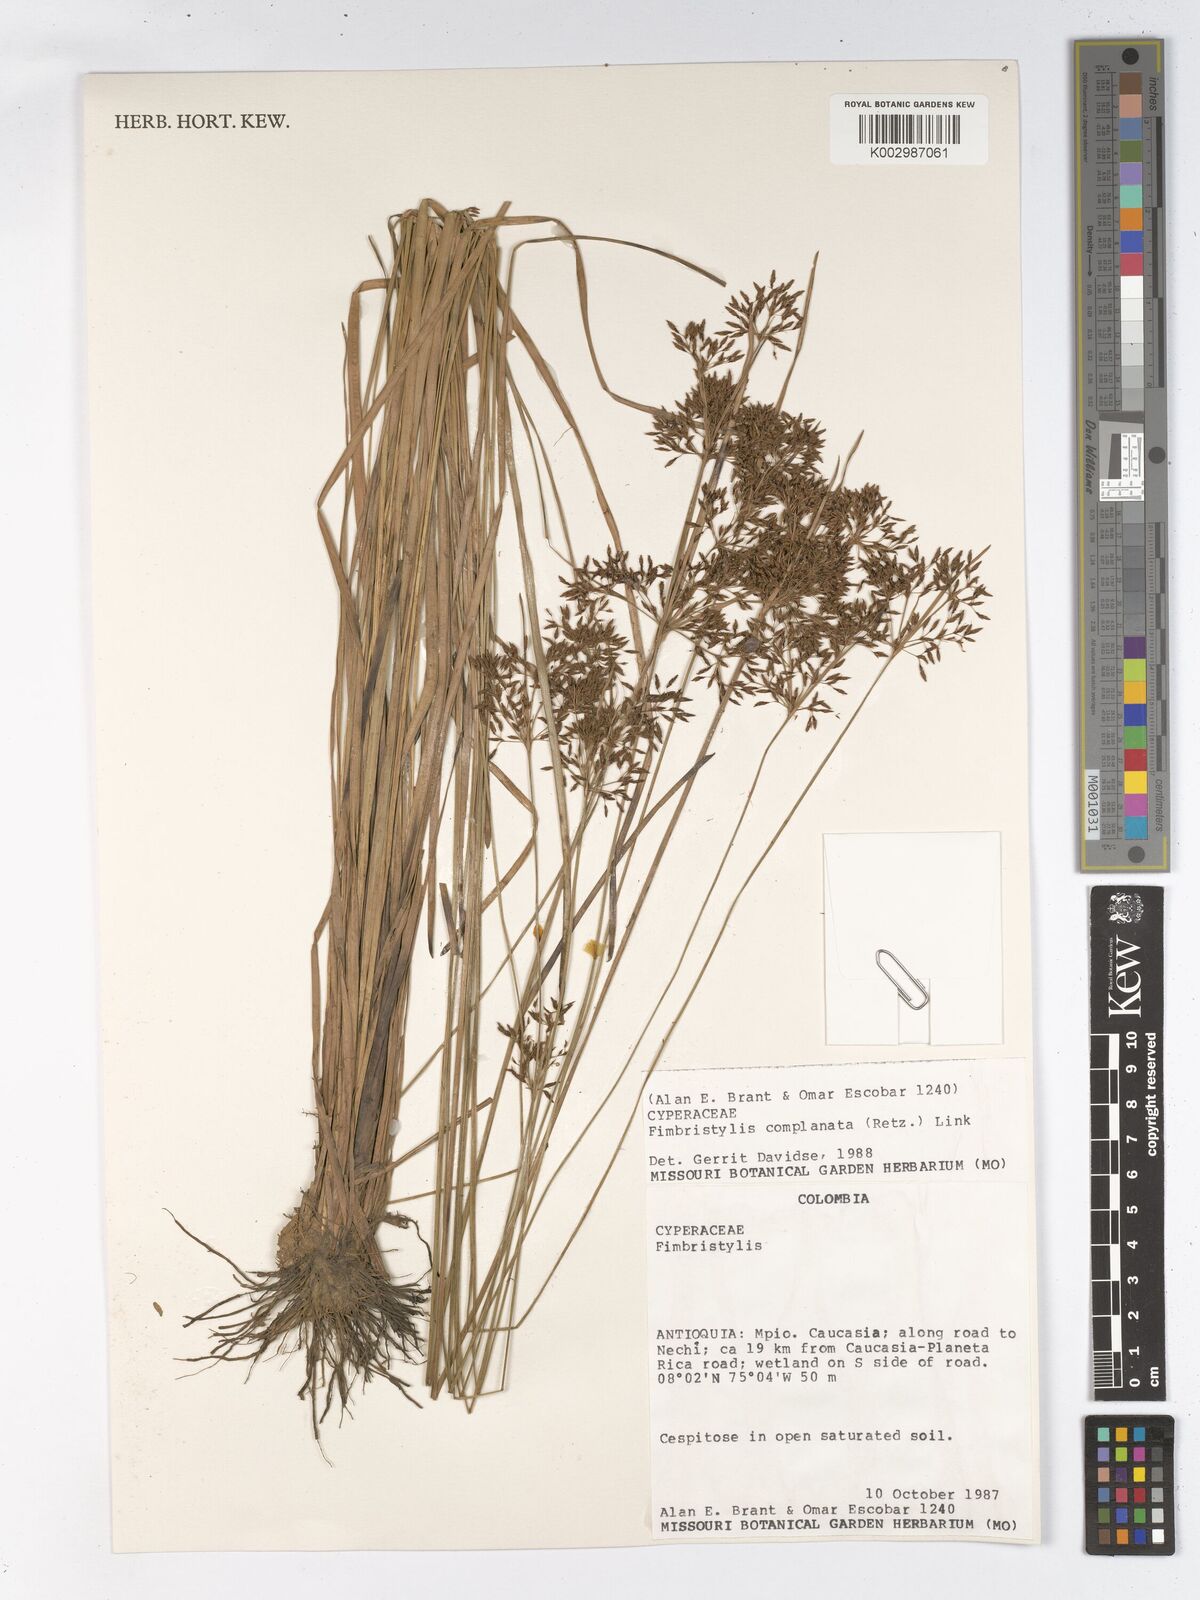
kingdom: Plantae
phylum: Tracheophyta
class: Liliopsida
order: Poales
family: Cyperaceae
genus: Fimbristylis
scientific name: Fimbristylis complanata
